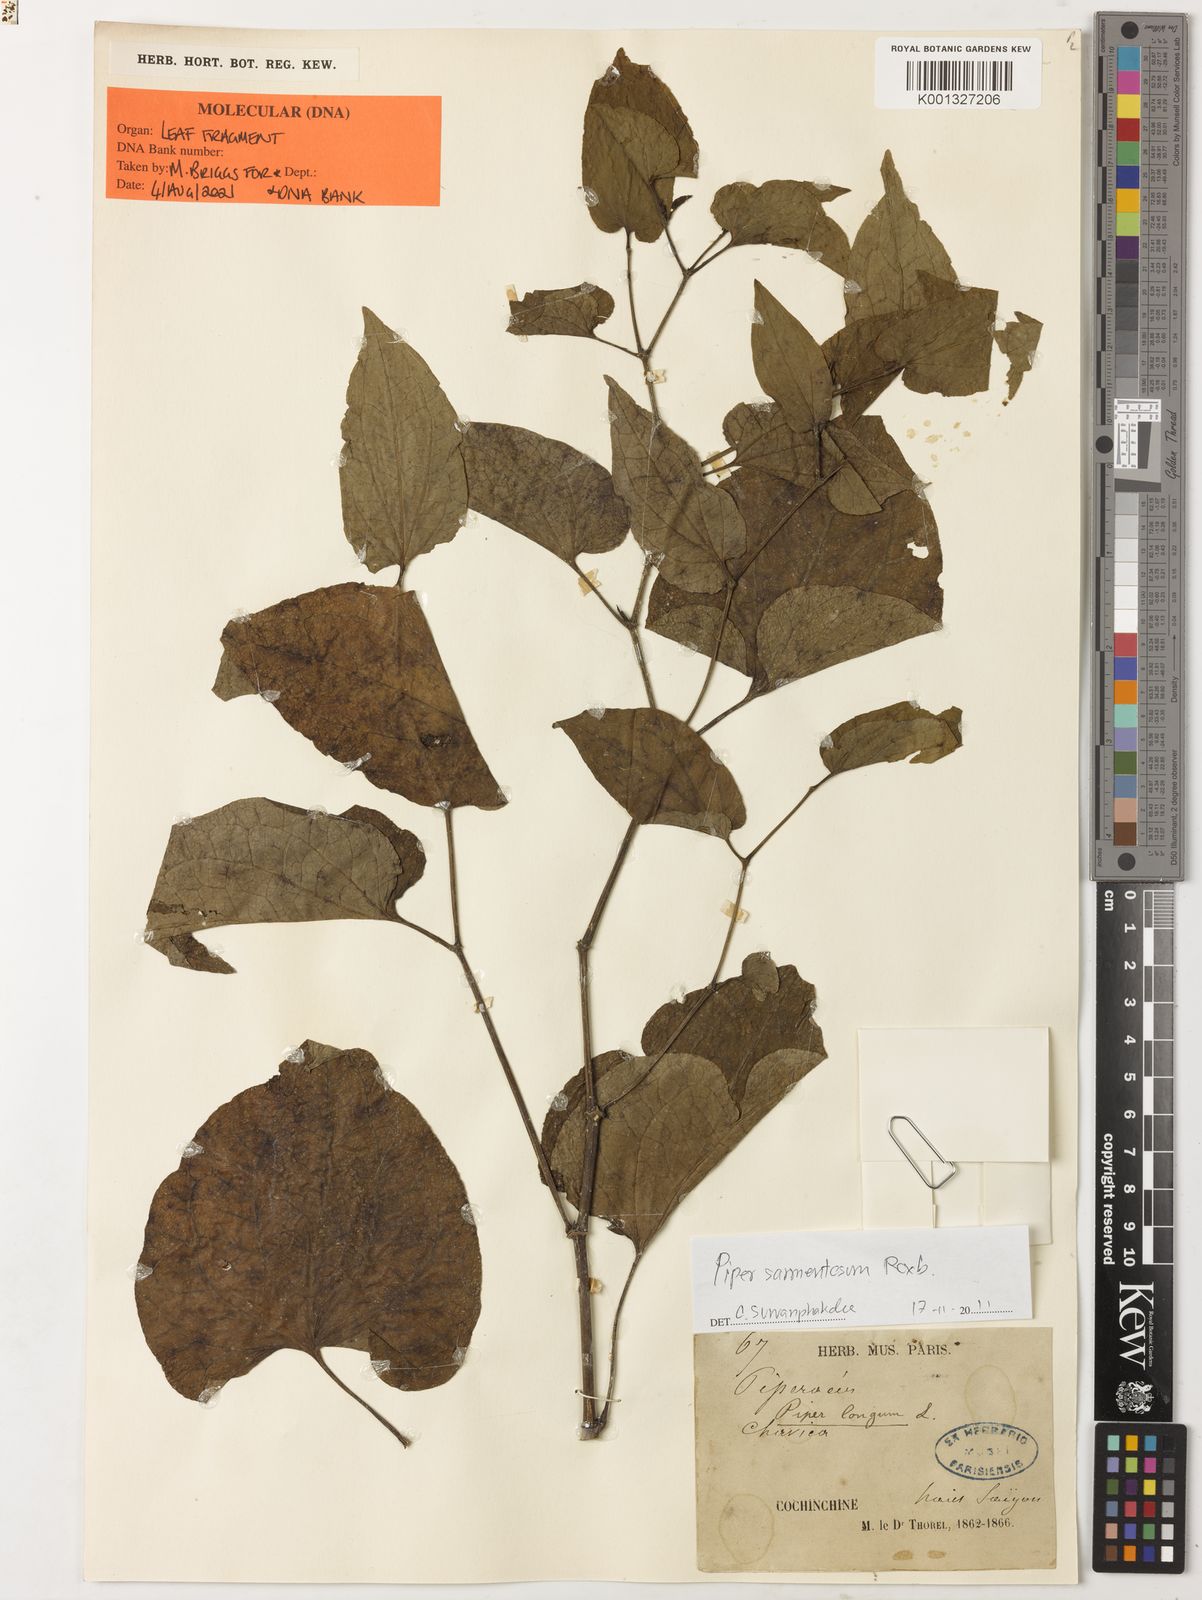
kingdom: Plantae
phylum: Tracheophyta
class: Magnoliopsida
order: Piperales
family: Piperaceae
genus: Piper
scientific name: Piper sarmentosum
